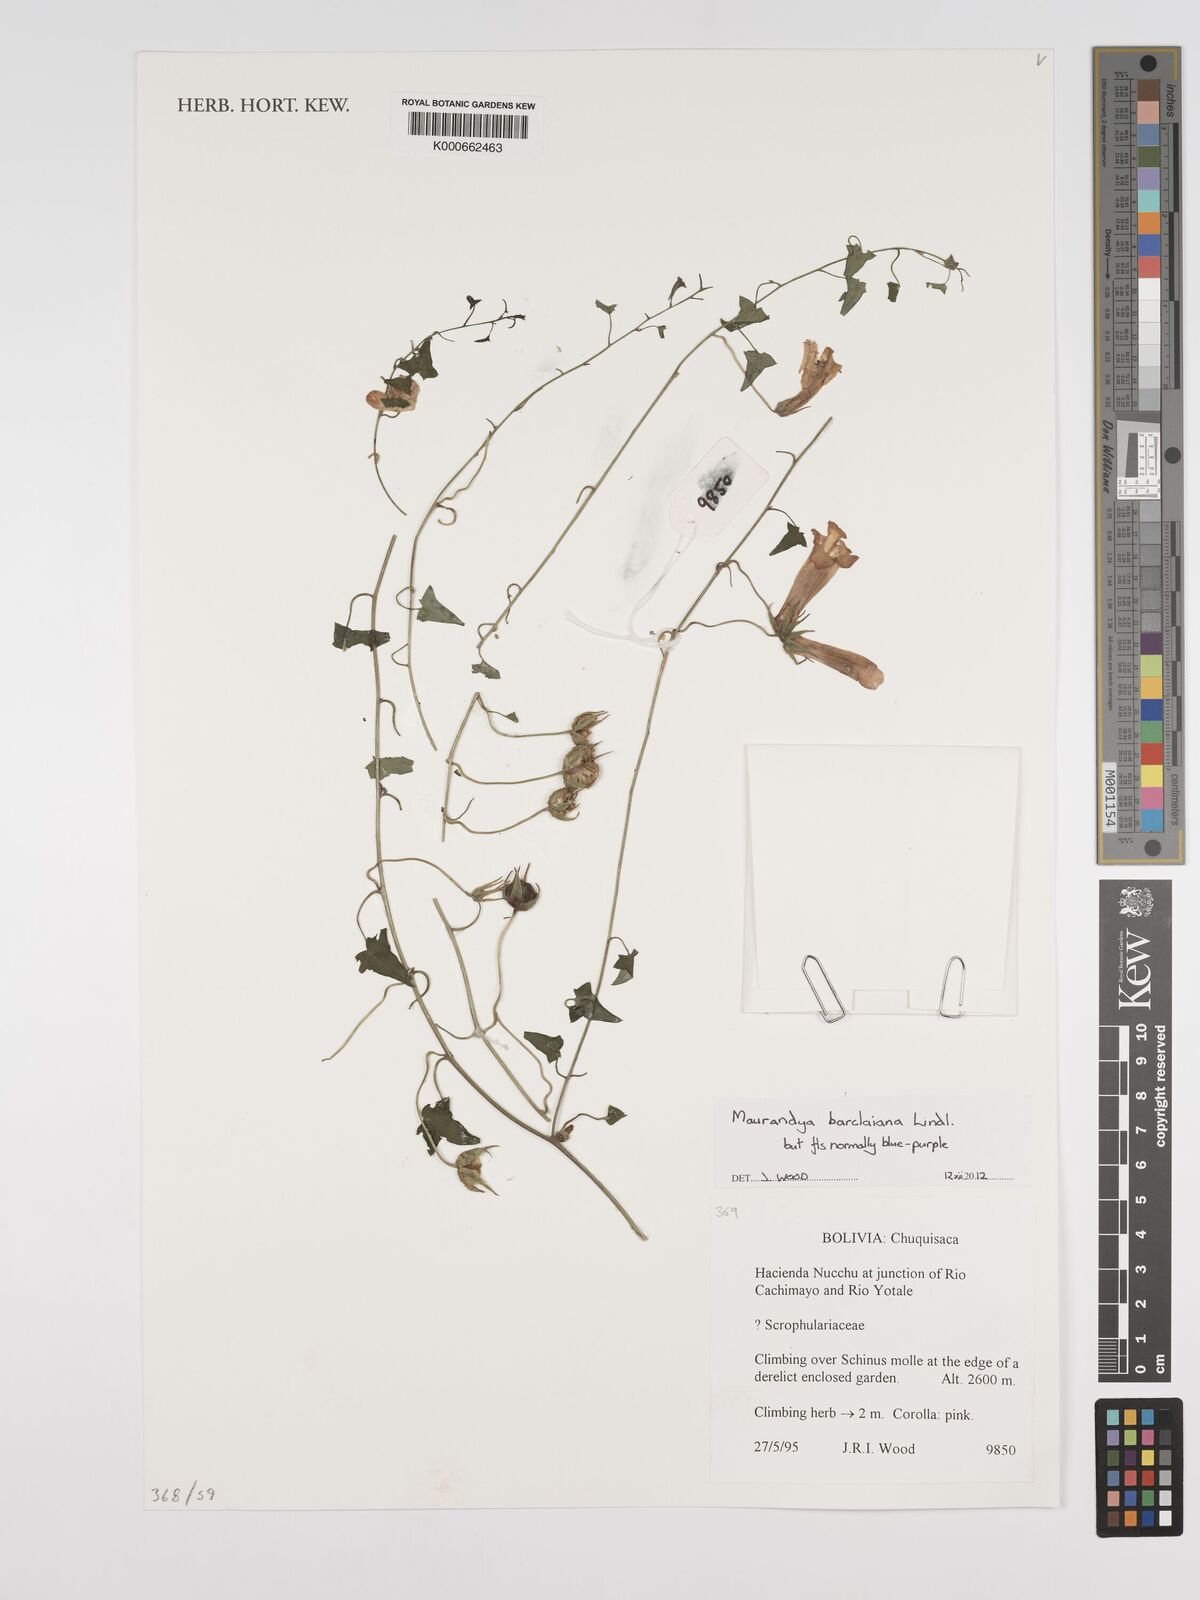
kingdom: Plantae
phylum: Tracheophyta
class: Magnoliopsida
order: Lamiales
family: Plantaginaceae
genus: Maurandya
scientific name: Maurandya barclayana
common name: Mexican viper
